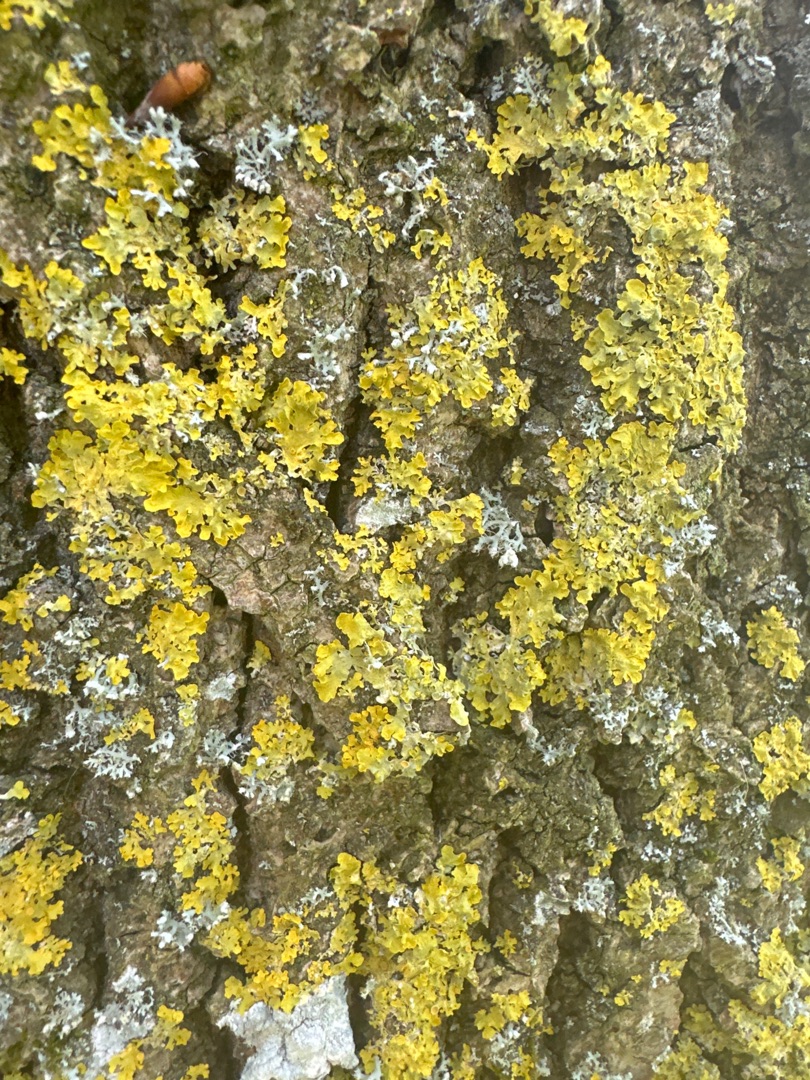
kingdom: Fungi
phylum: Ascomycota
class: Lecanoromycetes
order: Teloschistales
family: Teloschistaceae
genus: Xanthoria
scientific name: Xanthoria aureola
